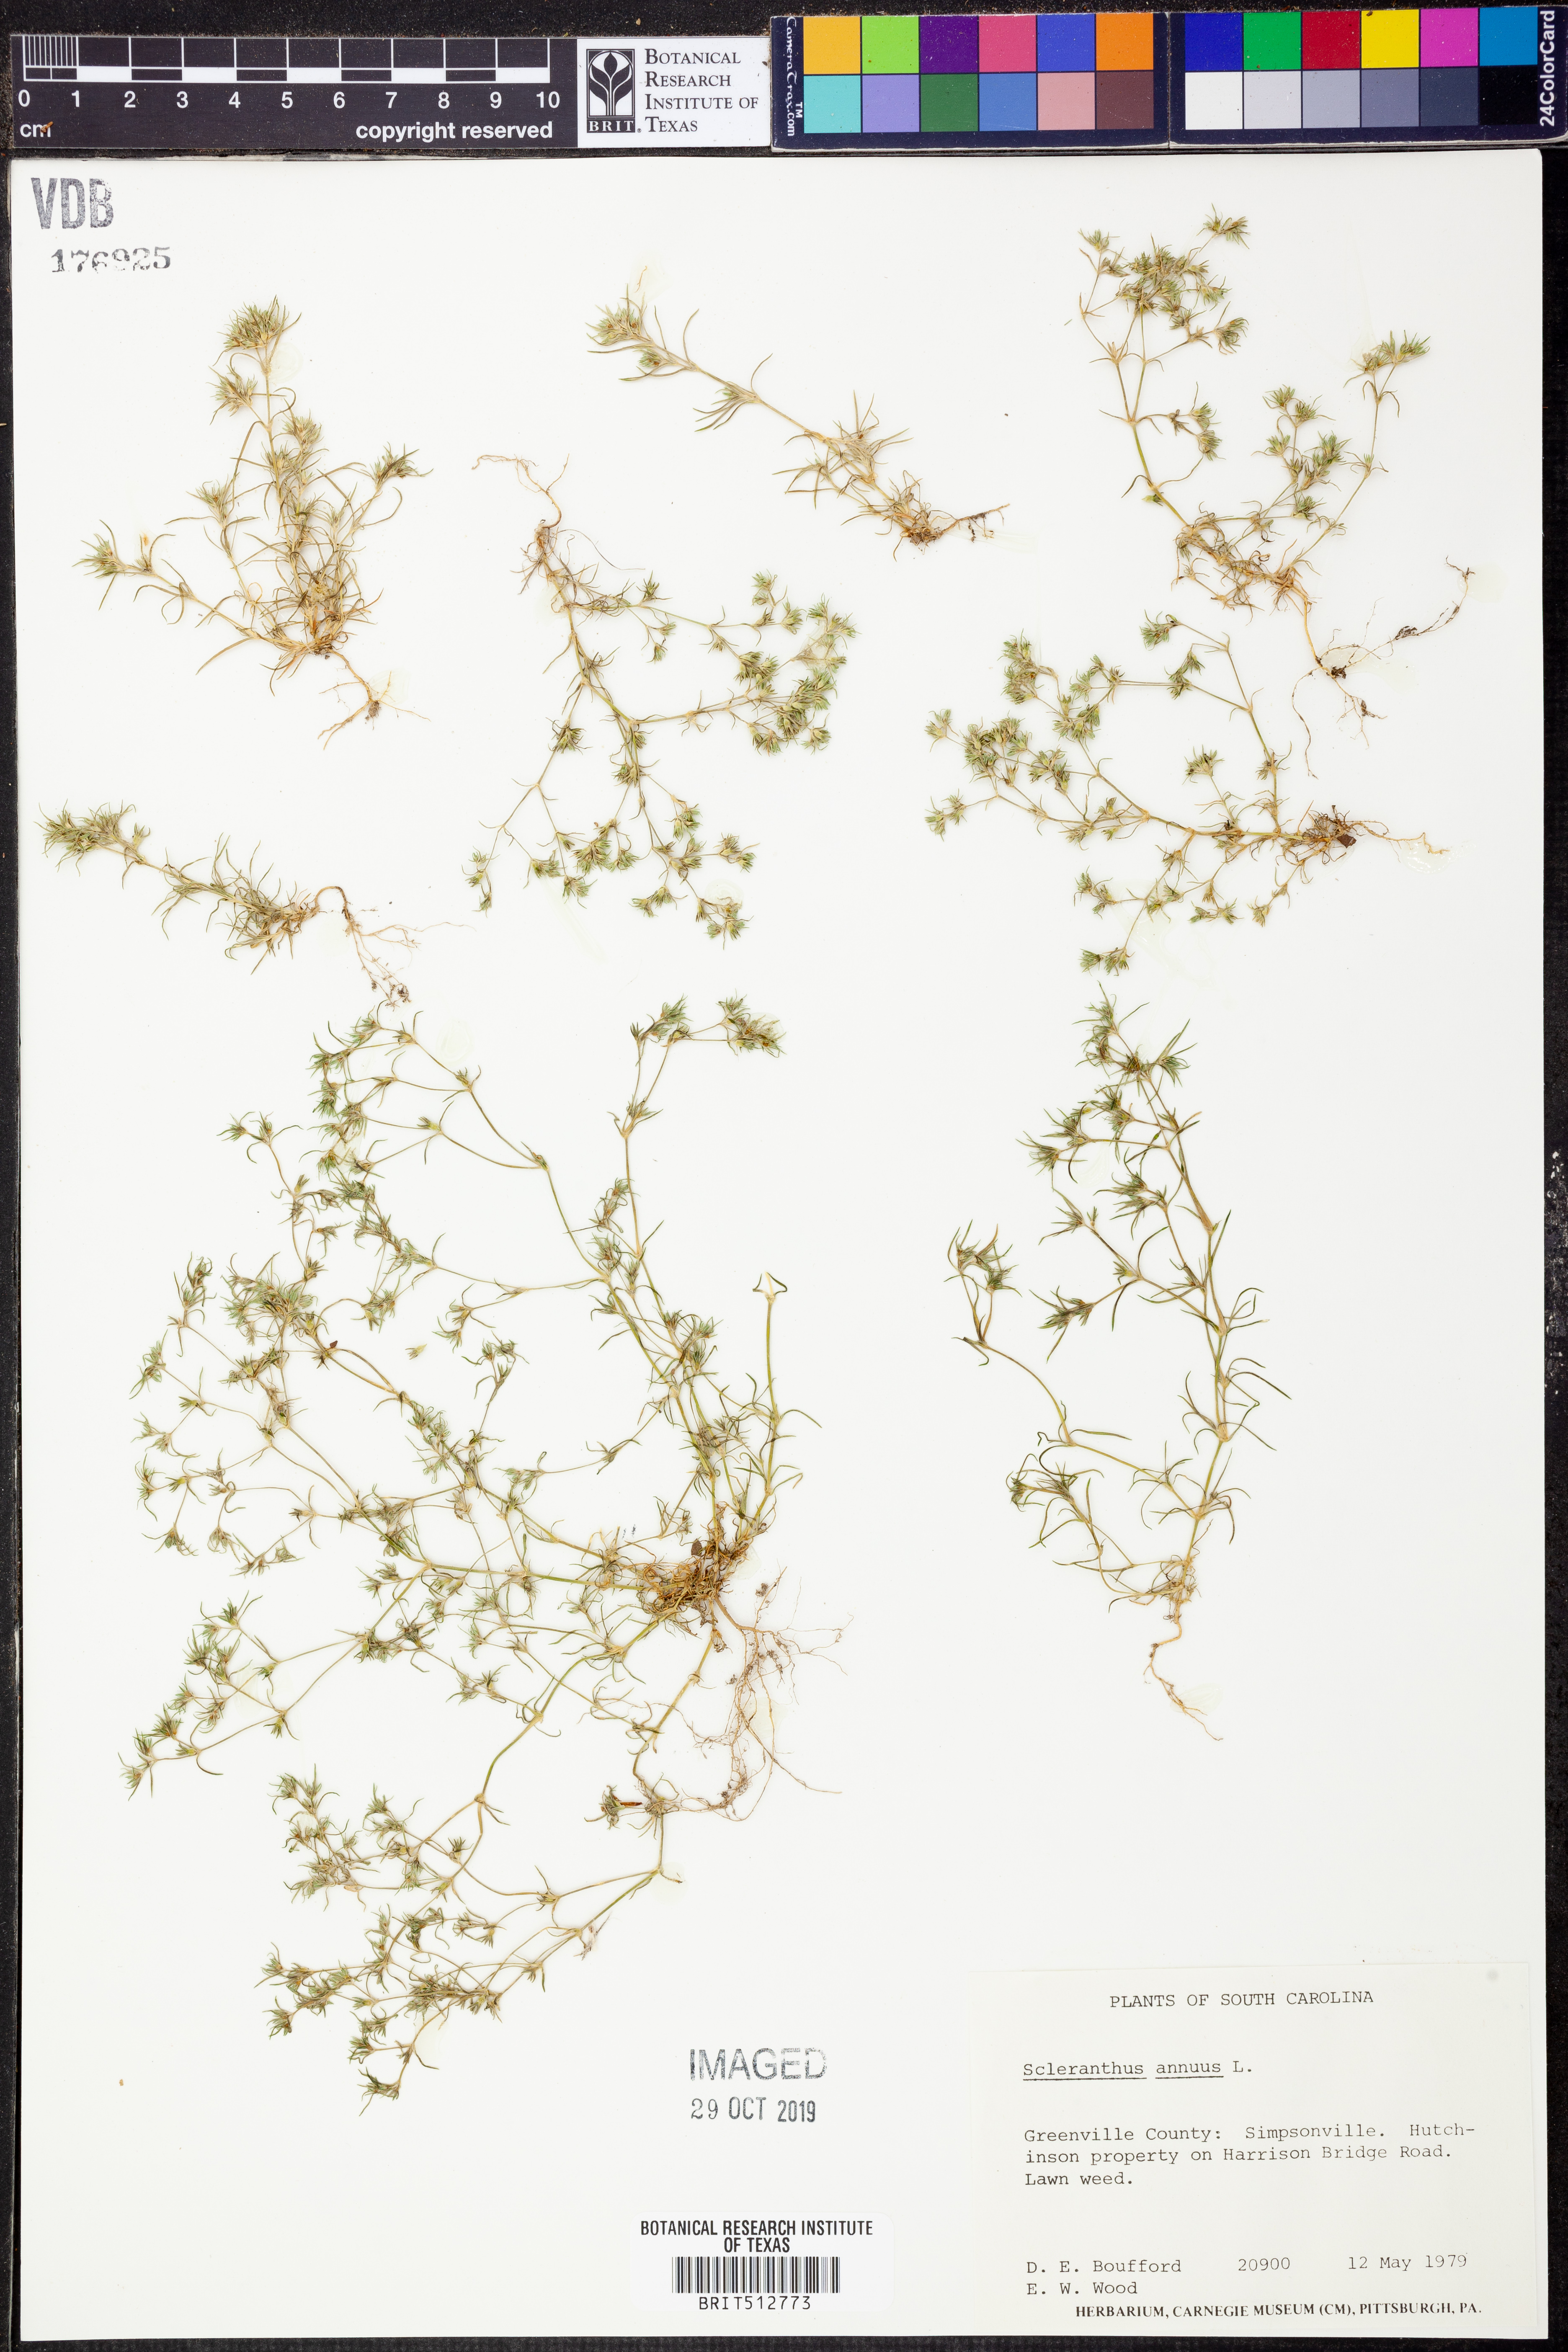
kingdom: Plantae
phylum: Tracheophyta
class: Magnoliopsida
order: Caryophyllales
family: Caryophyllaceae
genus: Scleranthus
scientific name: Scleranthus annuus
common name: Annual knawel
